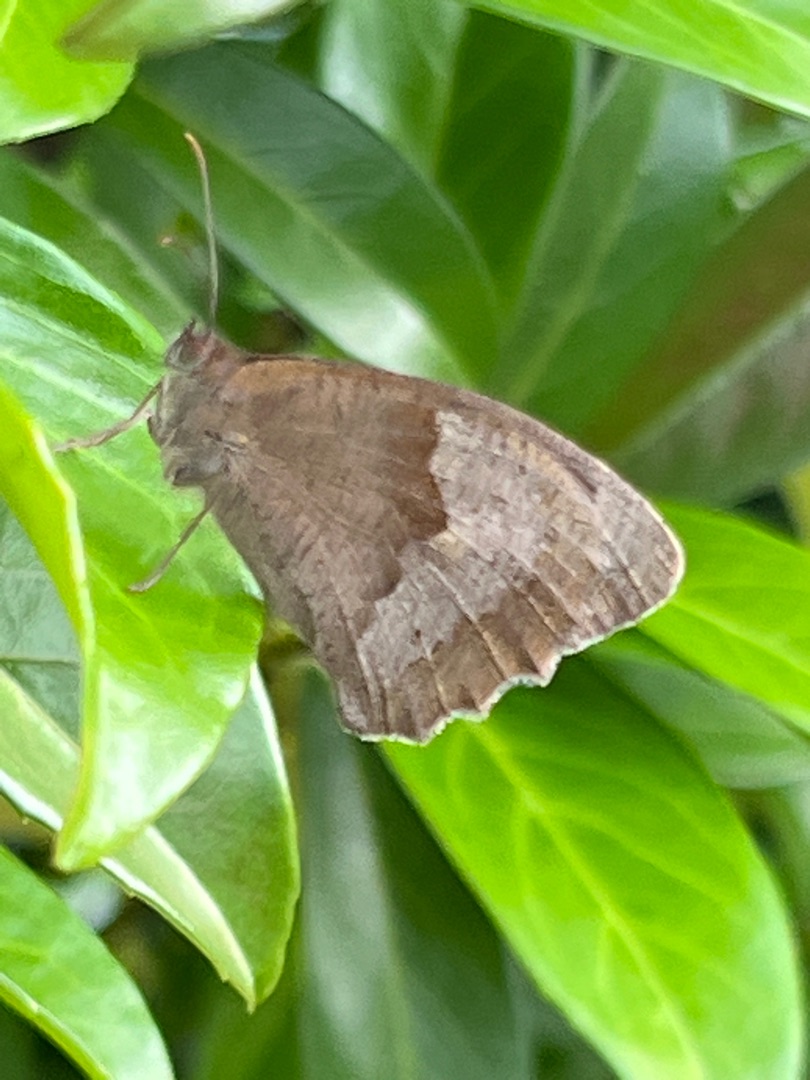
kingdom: Animalia
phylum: Arthropoda
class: Insecta
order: Lepidoptera
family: Nymphalidae
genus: Maniola
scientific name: Maniola jurtina
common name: Græsrandøje
